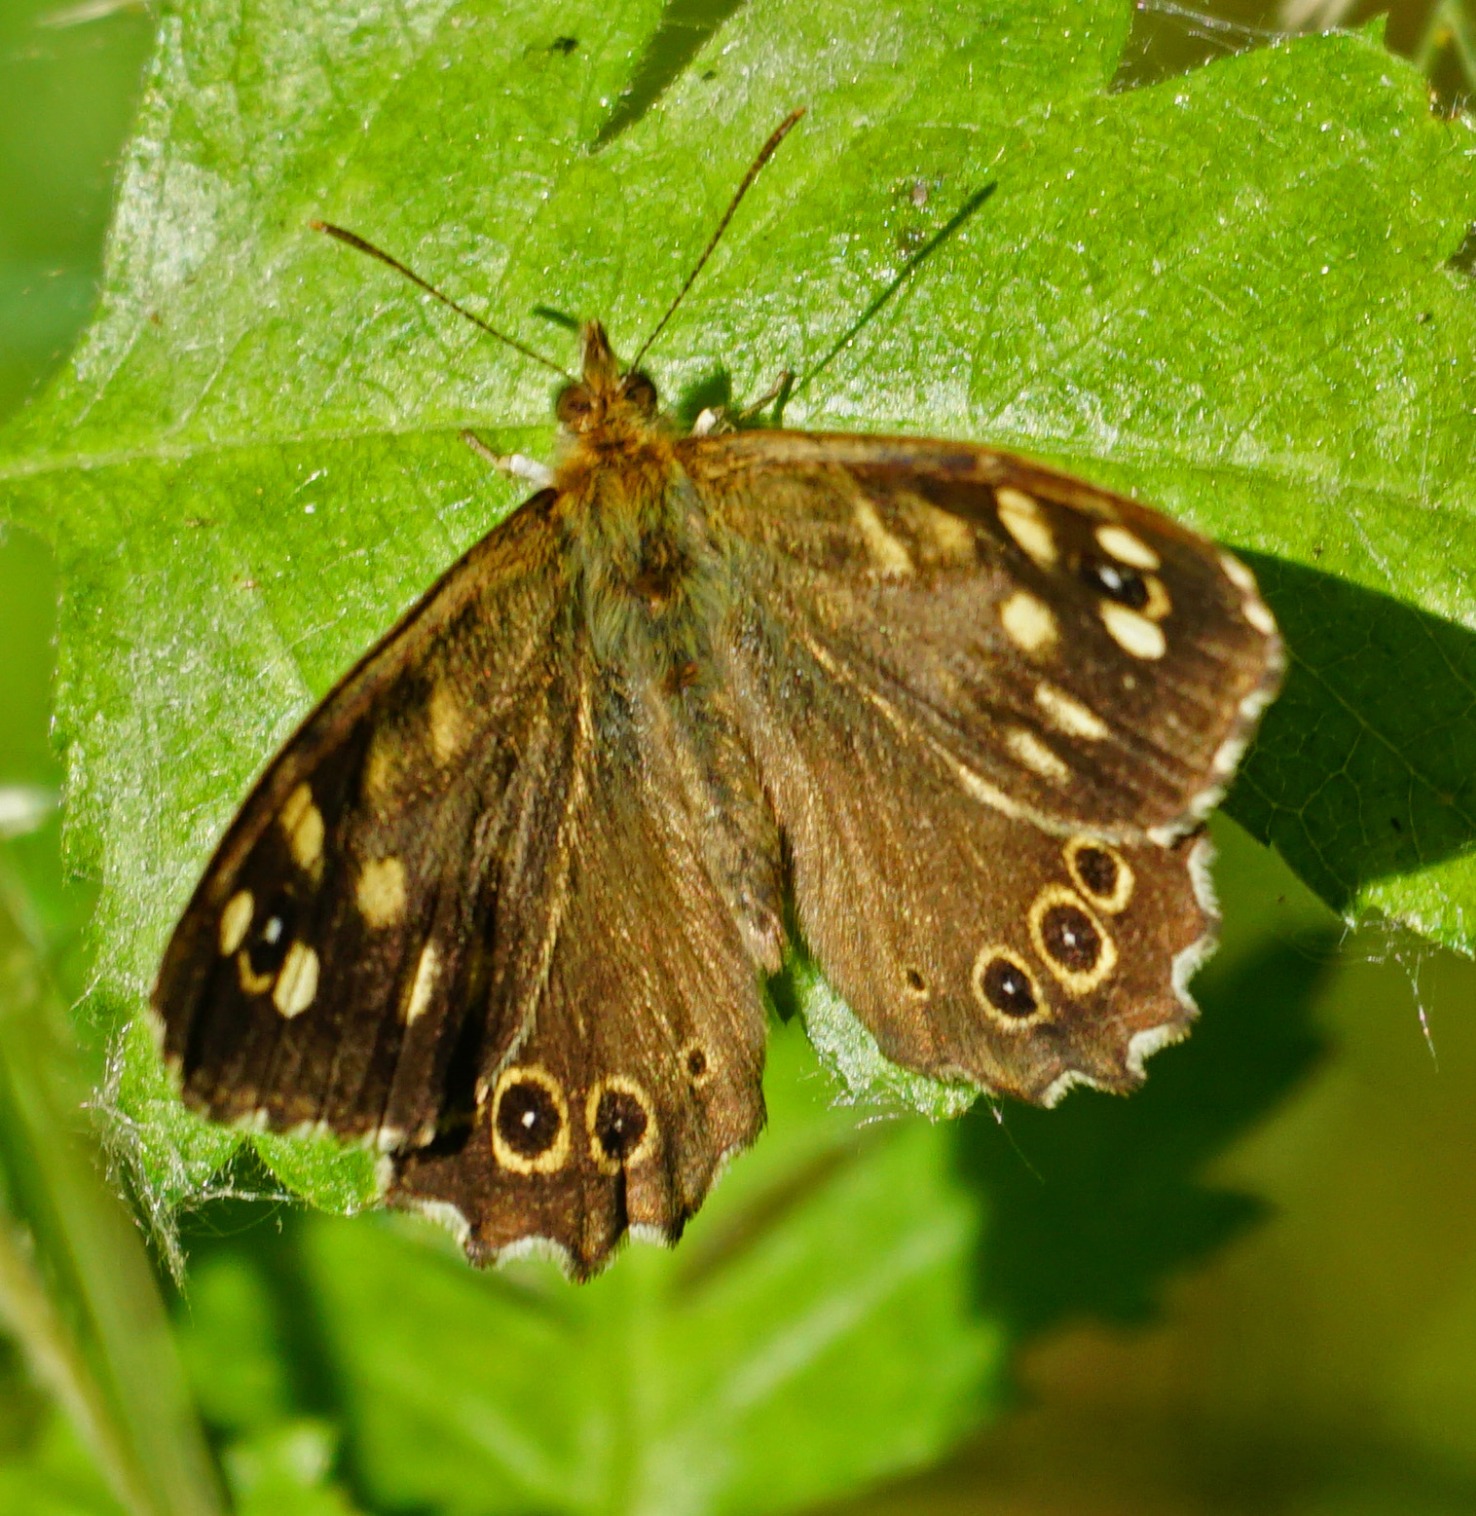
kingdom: Animalia
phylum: Arthropoda
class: Insecta
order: Lepidoptera
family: Nymphalidae
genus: Pararge
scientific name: Pararge aegeria
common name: Skovrandøje
